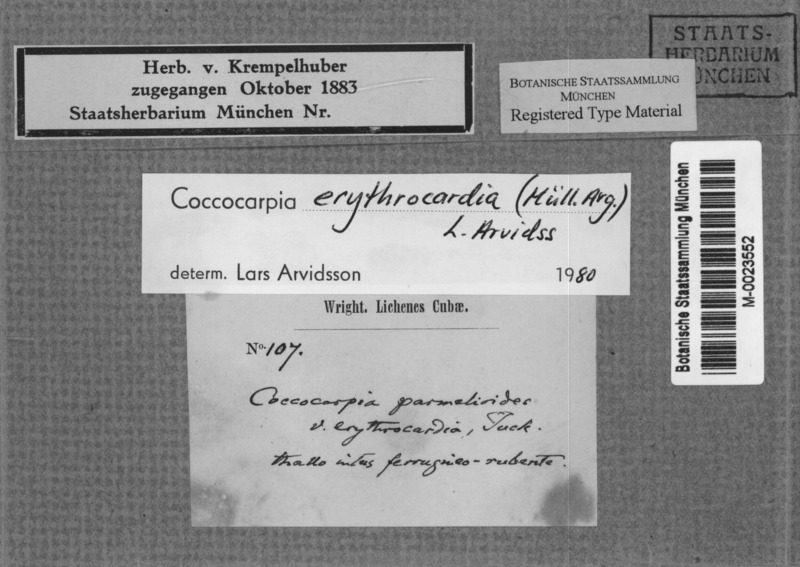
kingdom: Fungi
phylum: Ascomycota
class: Lecanoromycetes
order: Peltigerales
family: Coccocarpiaceae
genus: Coccocarpia
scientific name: Coccocarpia erythrocardia
